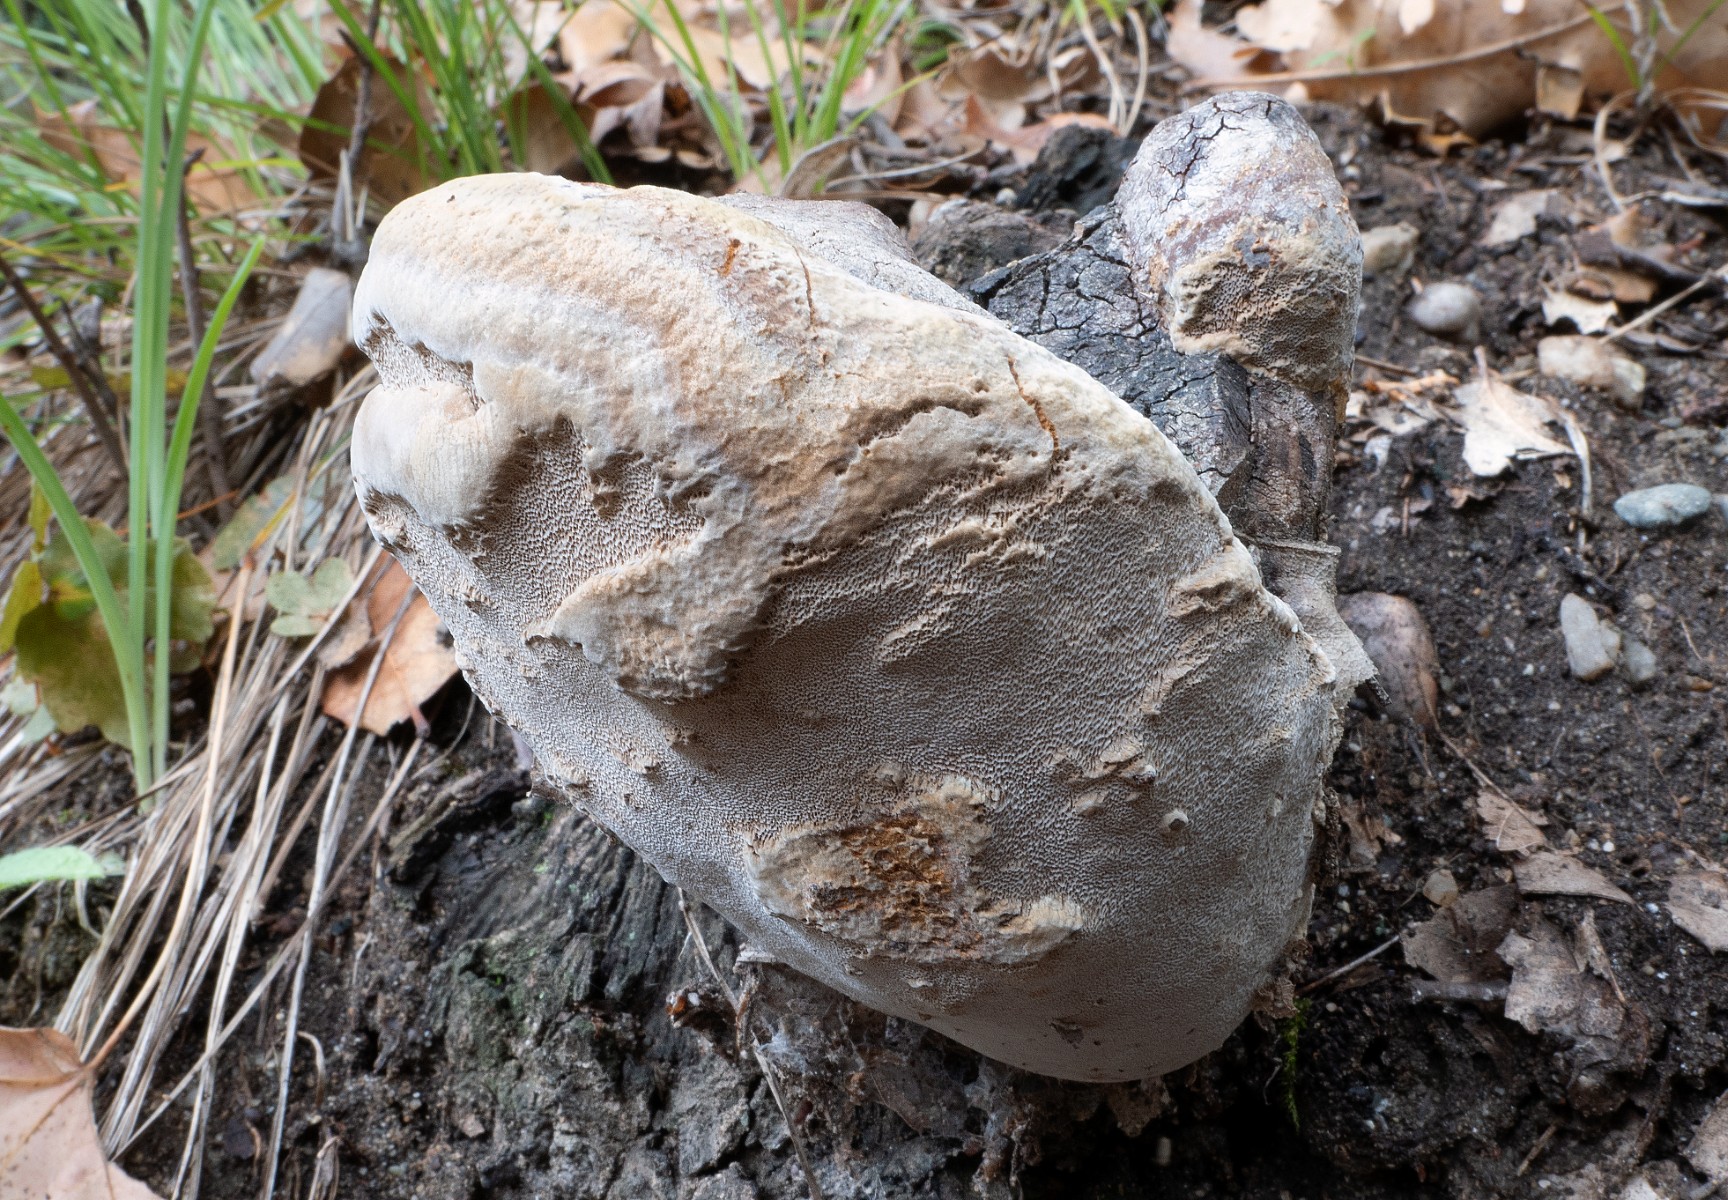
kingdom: Fungi
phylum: Basidiomycota
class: Agaricomycetes
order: Hymenochaetales
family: Hymenochaetaceae
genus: Phellinus
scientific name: Phellinus
